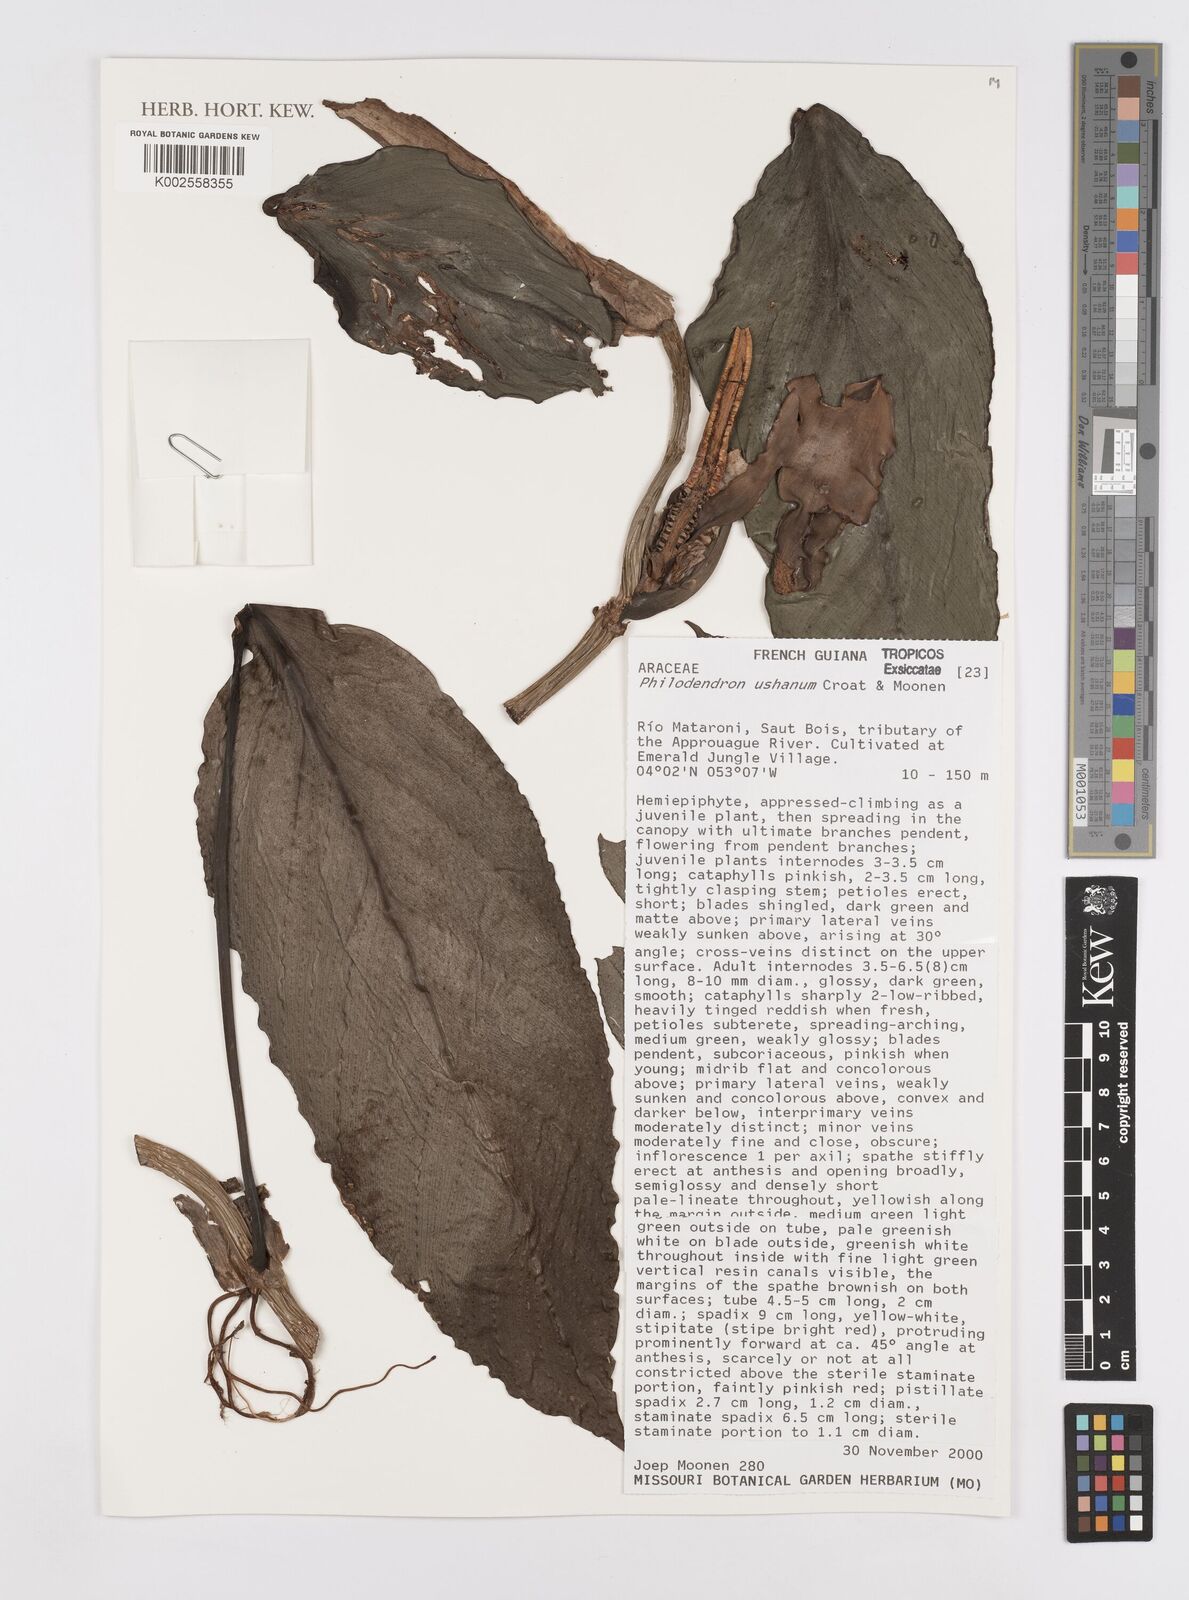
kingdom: Plantae
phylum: Tracheophyta
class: Liliopsida
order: Alismatales
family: Araceae
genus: Philodendron
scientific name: Philodendron ushanum
